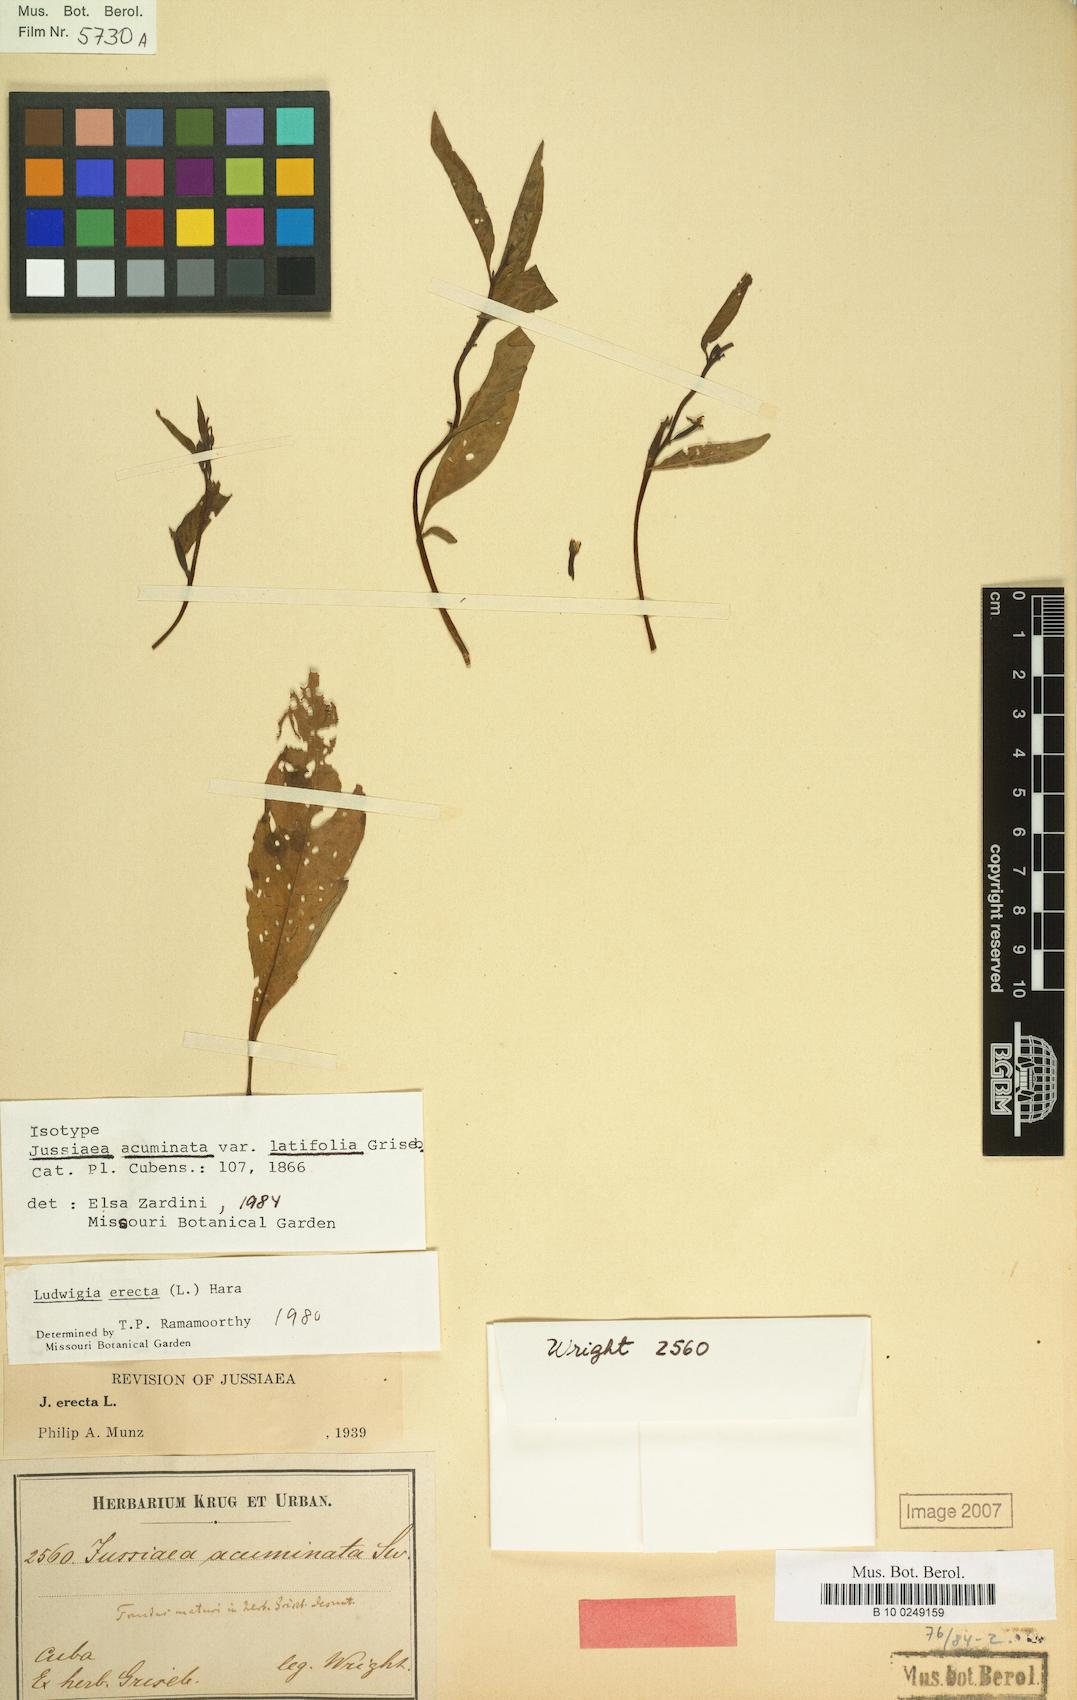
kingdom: Plantae
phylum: Tracheophyta
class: Magnoliopsida
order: Myrtales
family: Onagraceae
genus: Ludwigia
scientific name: Ludwigia erecta
